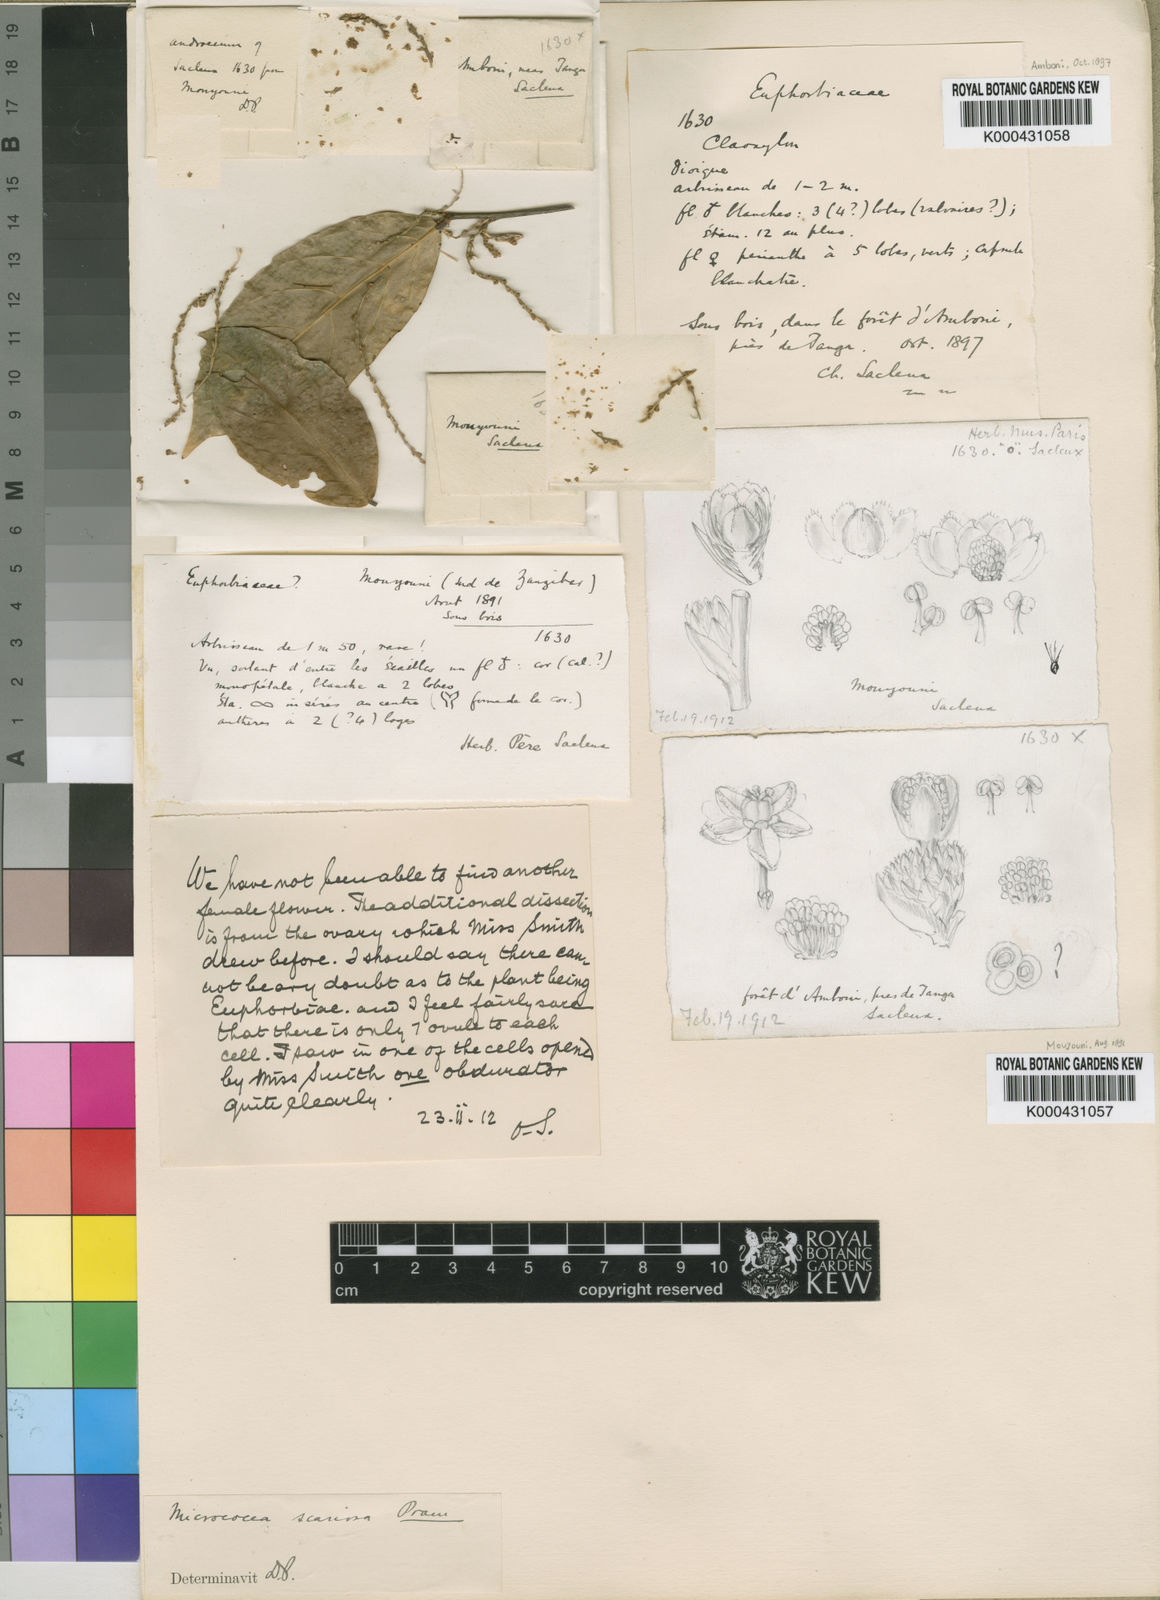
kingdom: Plantae
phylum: Tracheophyta
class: Magnoliopsida
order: Malpighiales
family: Euphorbiaceae
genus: Micrococca
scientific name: Micrococca scariosa
